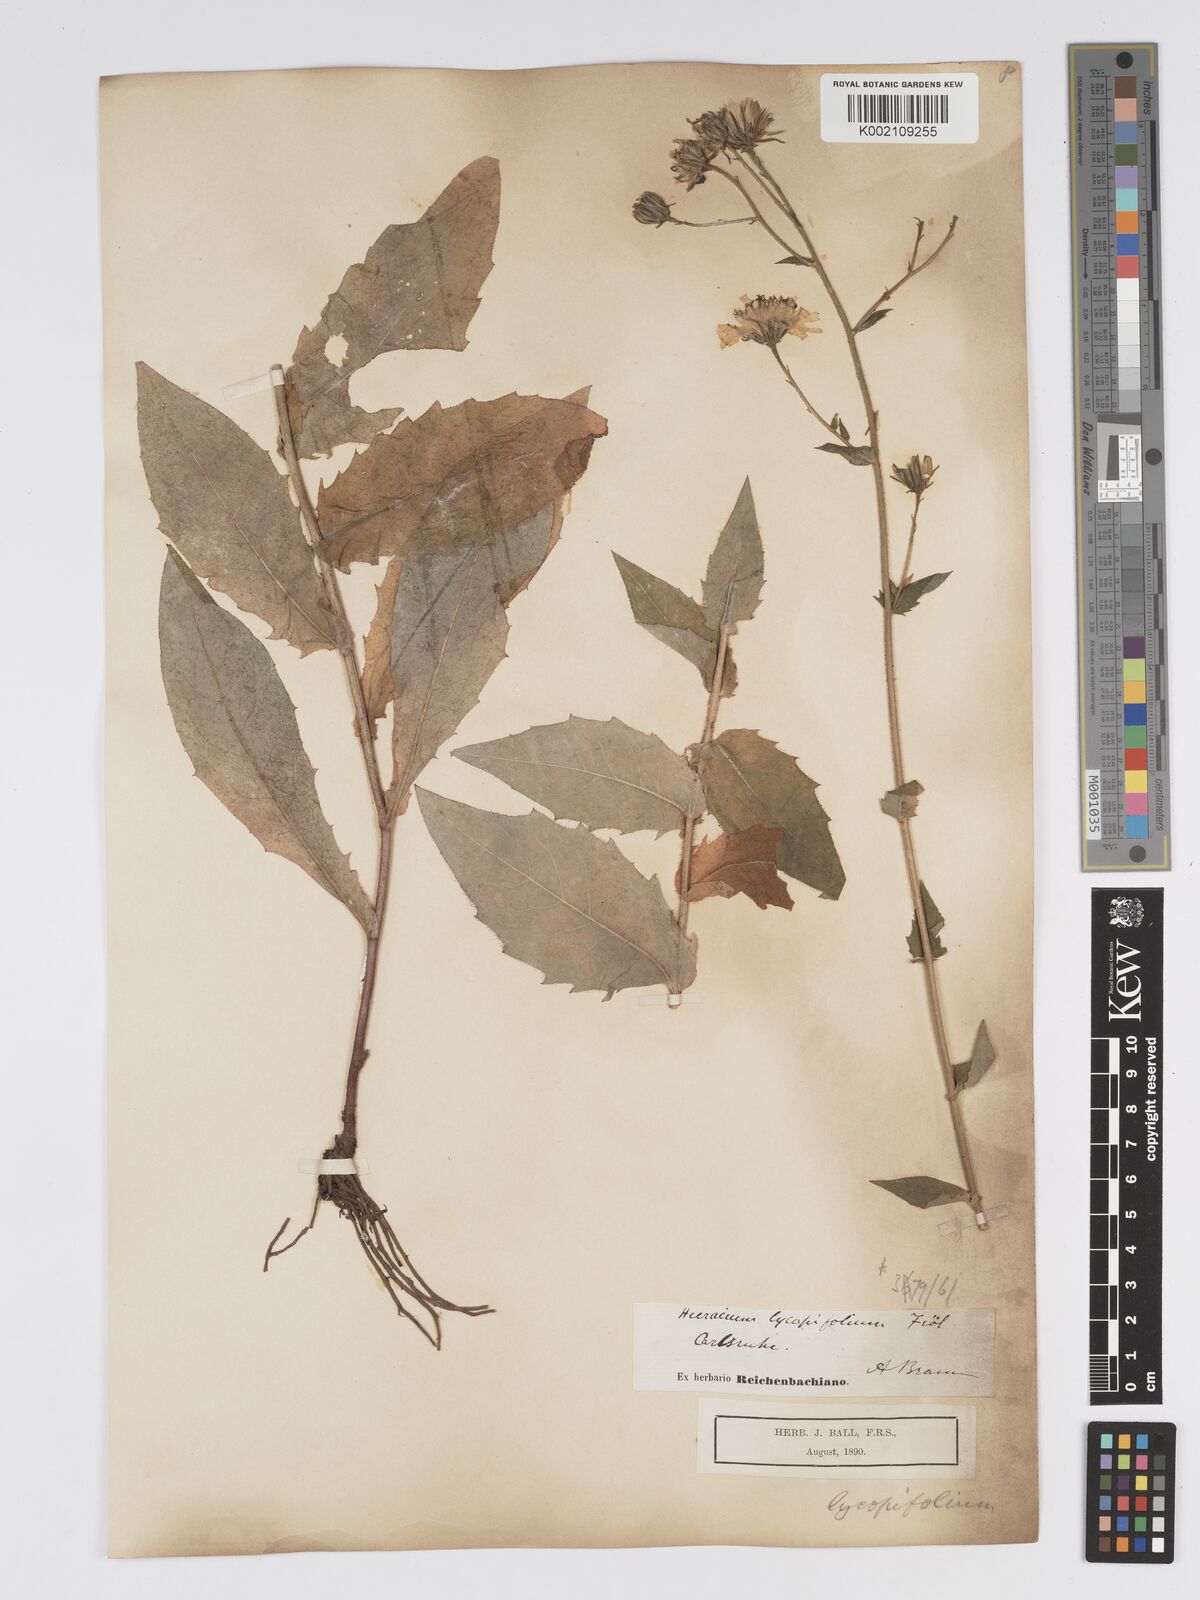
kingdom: Plantae
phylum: Tracheophyta
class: Magnoliopsida
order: Asterales
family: Asteraceae
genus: Hieracium
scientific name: Hieracium lycopifolium
